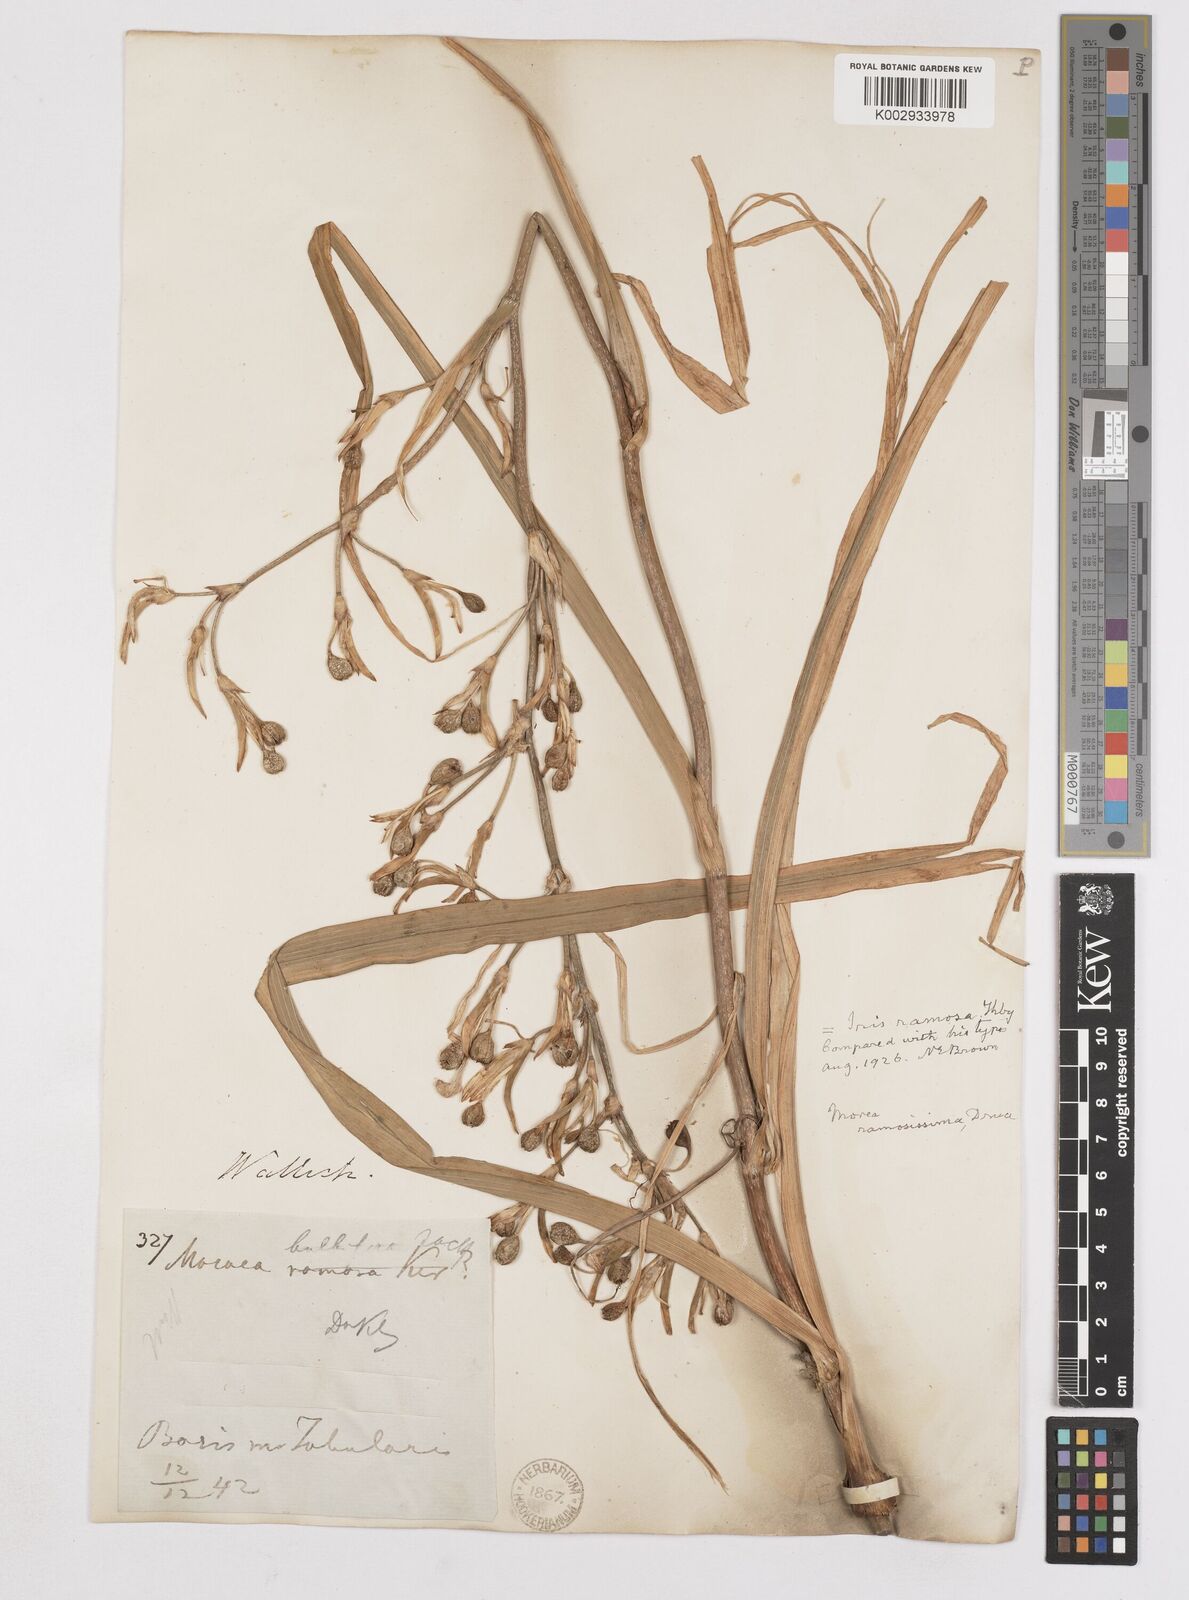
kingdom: Plantae
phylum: Tracheophyta
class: Liliopsida
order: Asparagales
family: Iridaceae
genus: Moraea
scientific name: Moraea ramosissima
